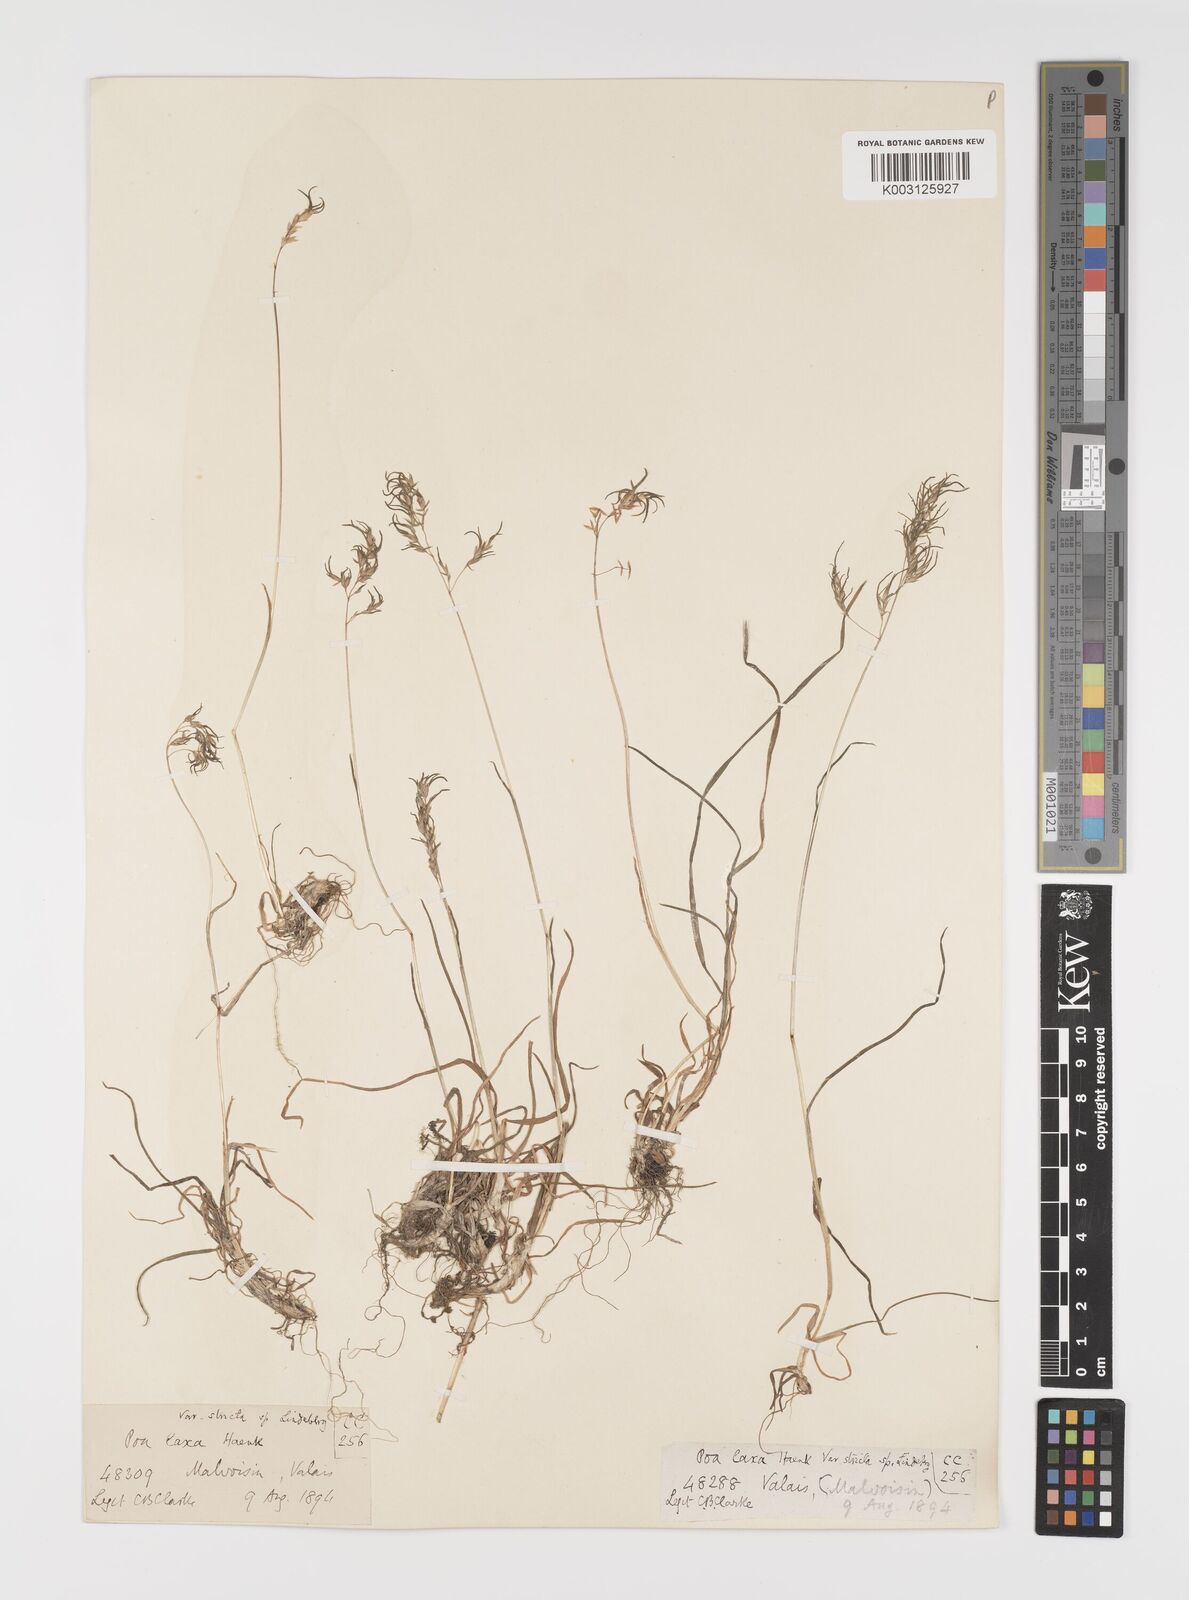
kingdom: Plantae
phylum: Tracheophyta
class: Liliopsida
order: Poales
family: Poaceae
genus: Poa
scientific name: Poa laxa
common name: Lax bluegrass
